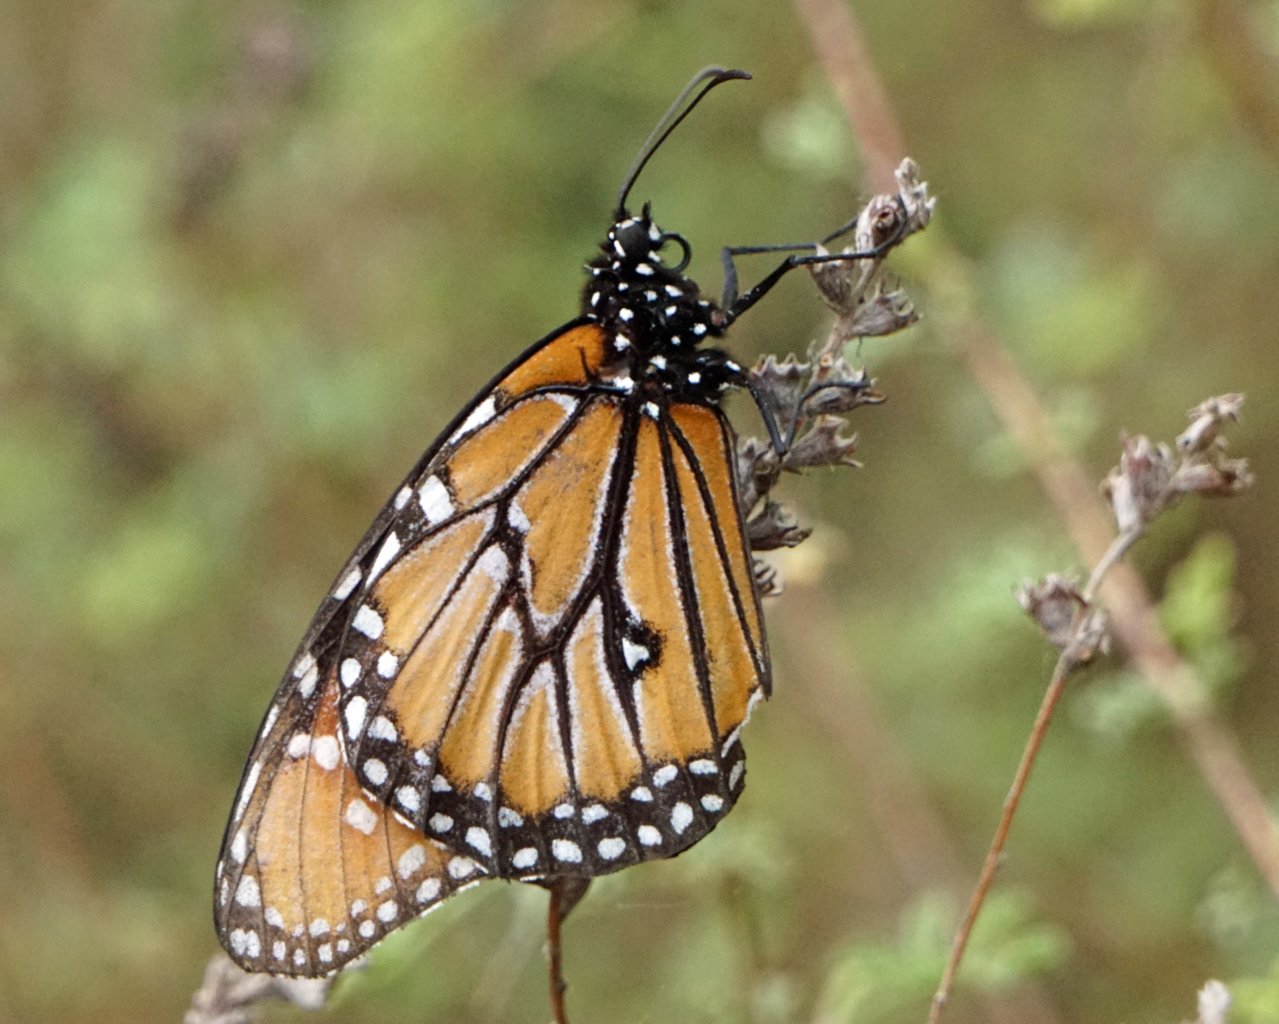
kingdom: Animalia
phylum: Arthropoda
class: Insecta
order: Lepidoptera
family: Nymphalidae
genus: Danaus
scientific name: Danaus gilippus
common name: Queen
